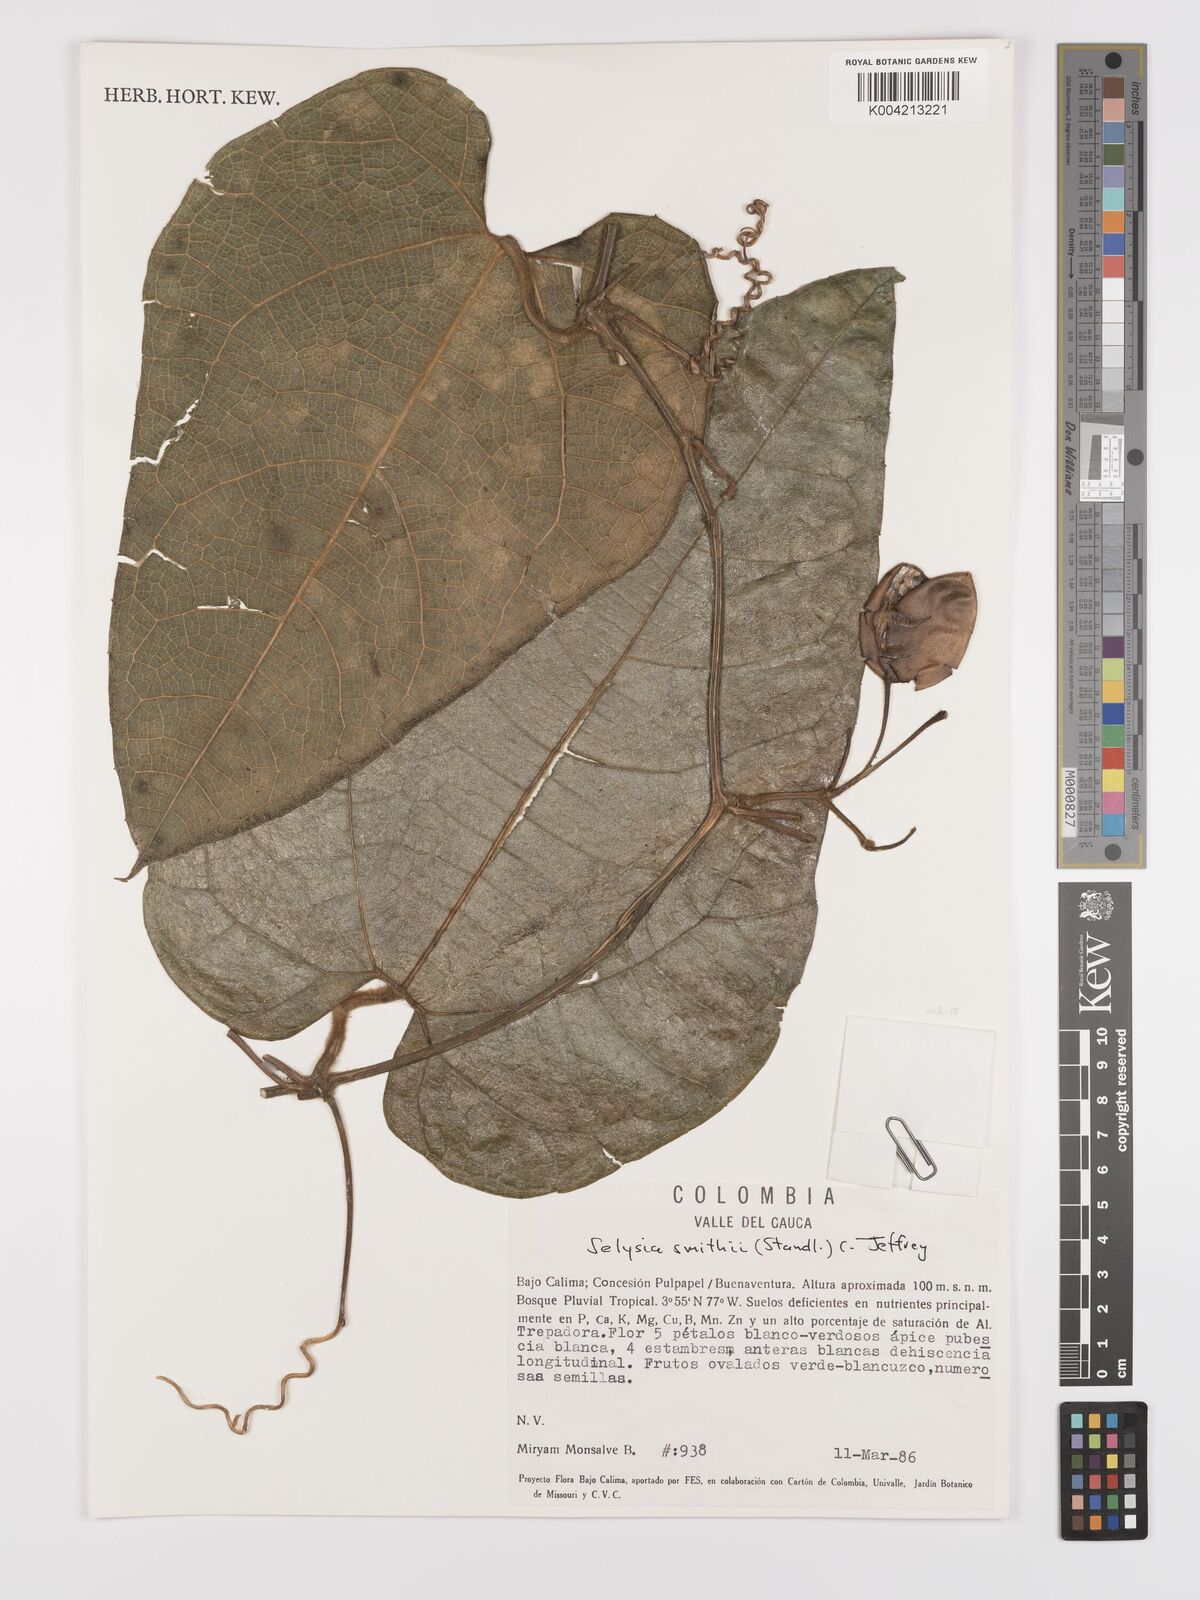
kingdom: Plantae
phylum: Tracheophyta
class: Magnoliopsida
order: Cucurbitales
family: Cucurbitaceae
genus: Cayaponia
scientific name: Cayaponia smithii
